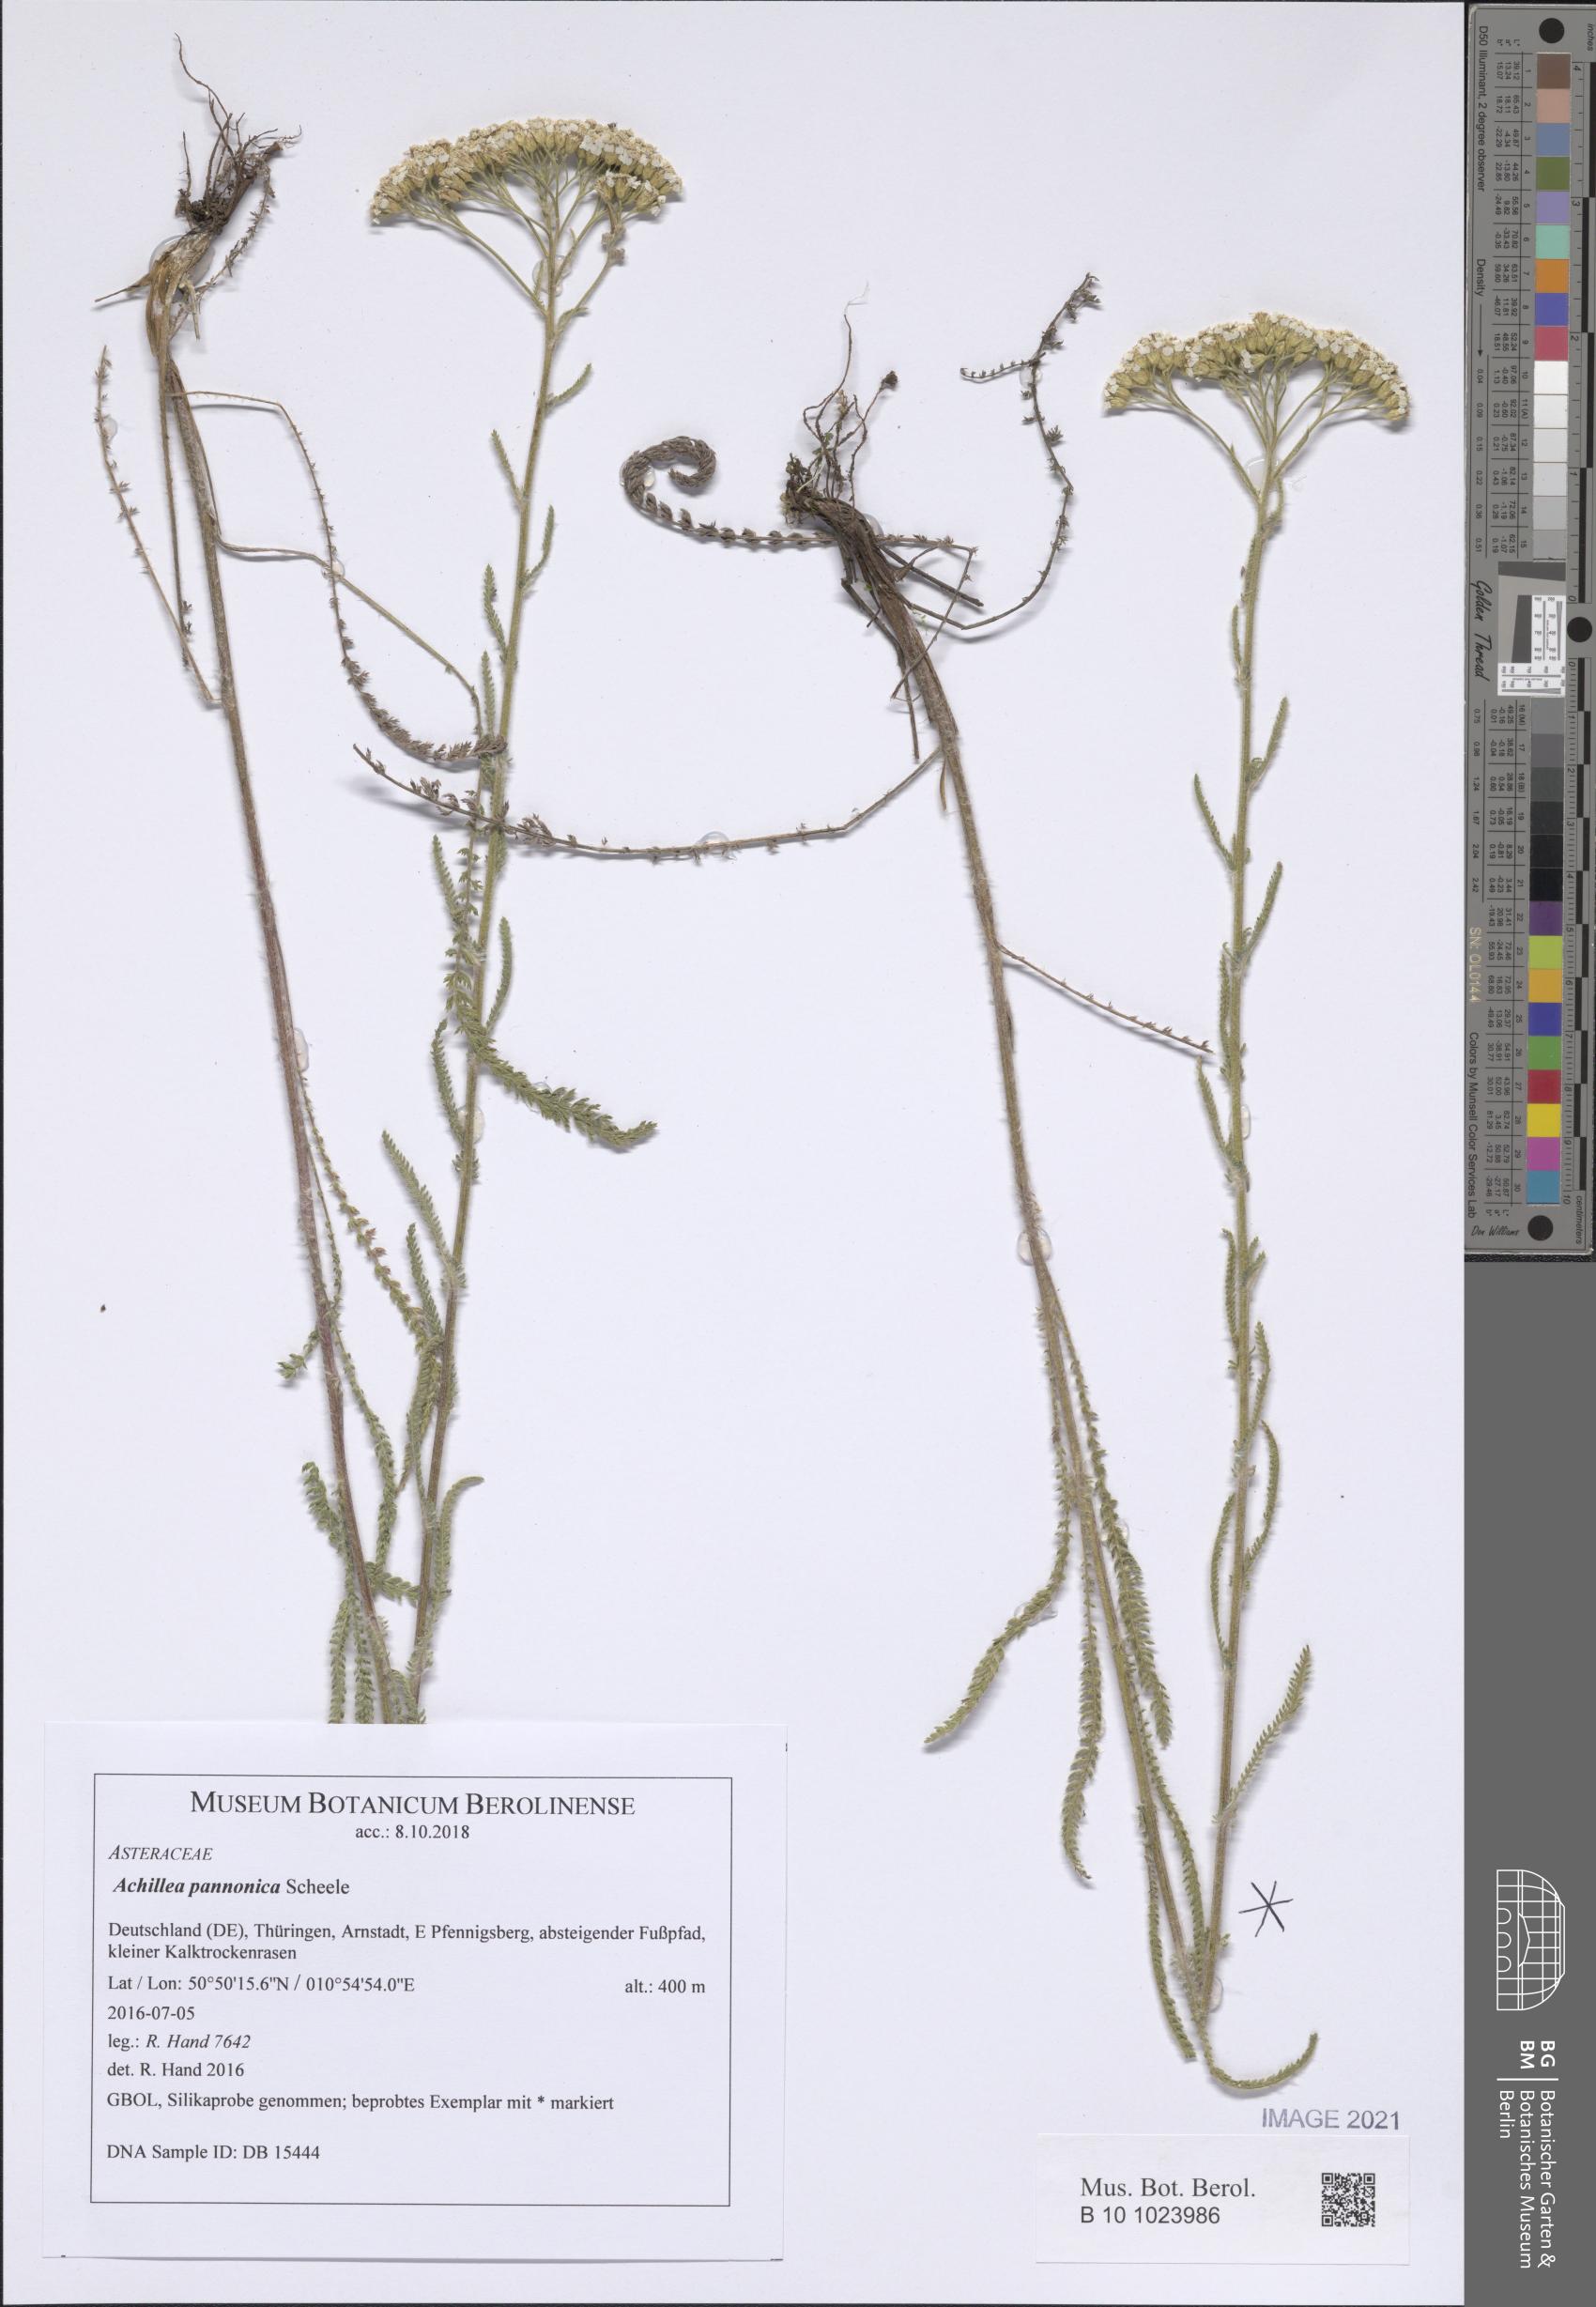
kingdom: Plantae
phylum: Tracheophyta
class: Magnoliopsida
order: Asterales
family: Asteraceae
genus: Achillea
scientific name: Achillea pannonica
